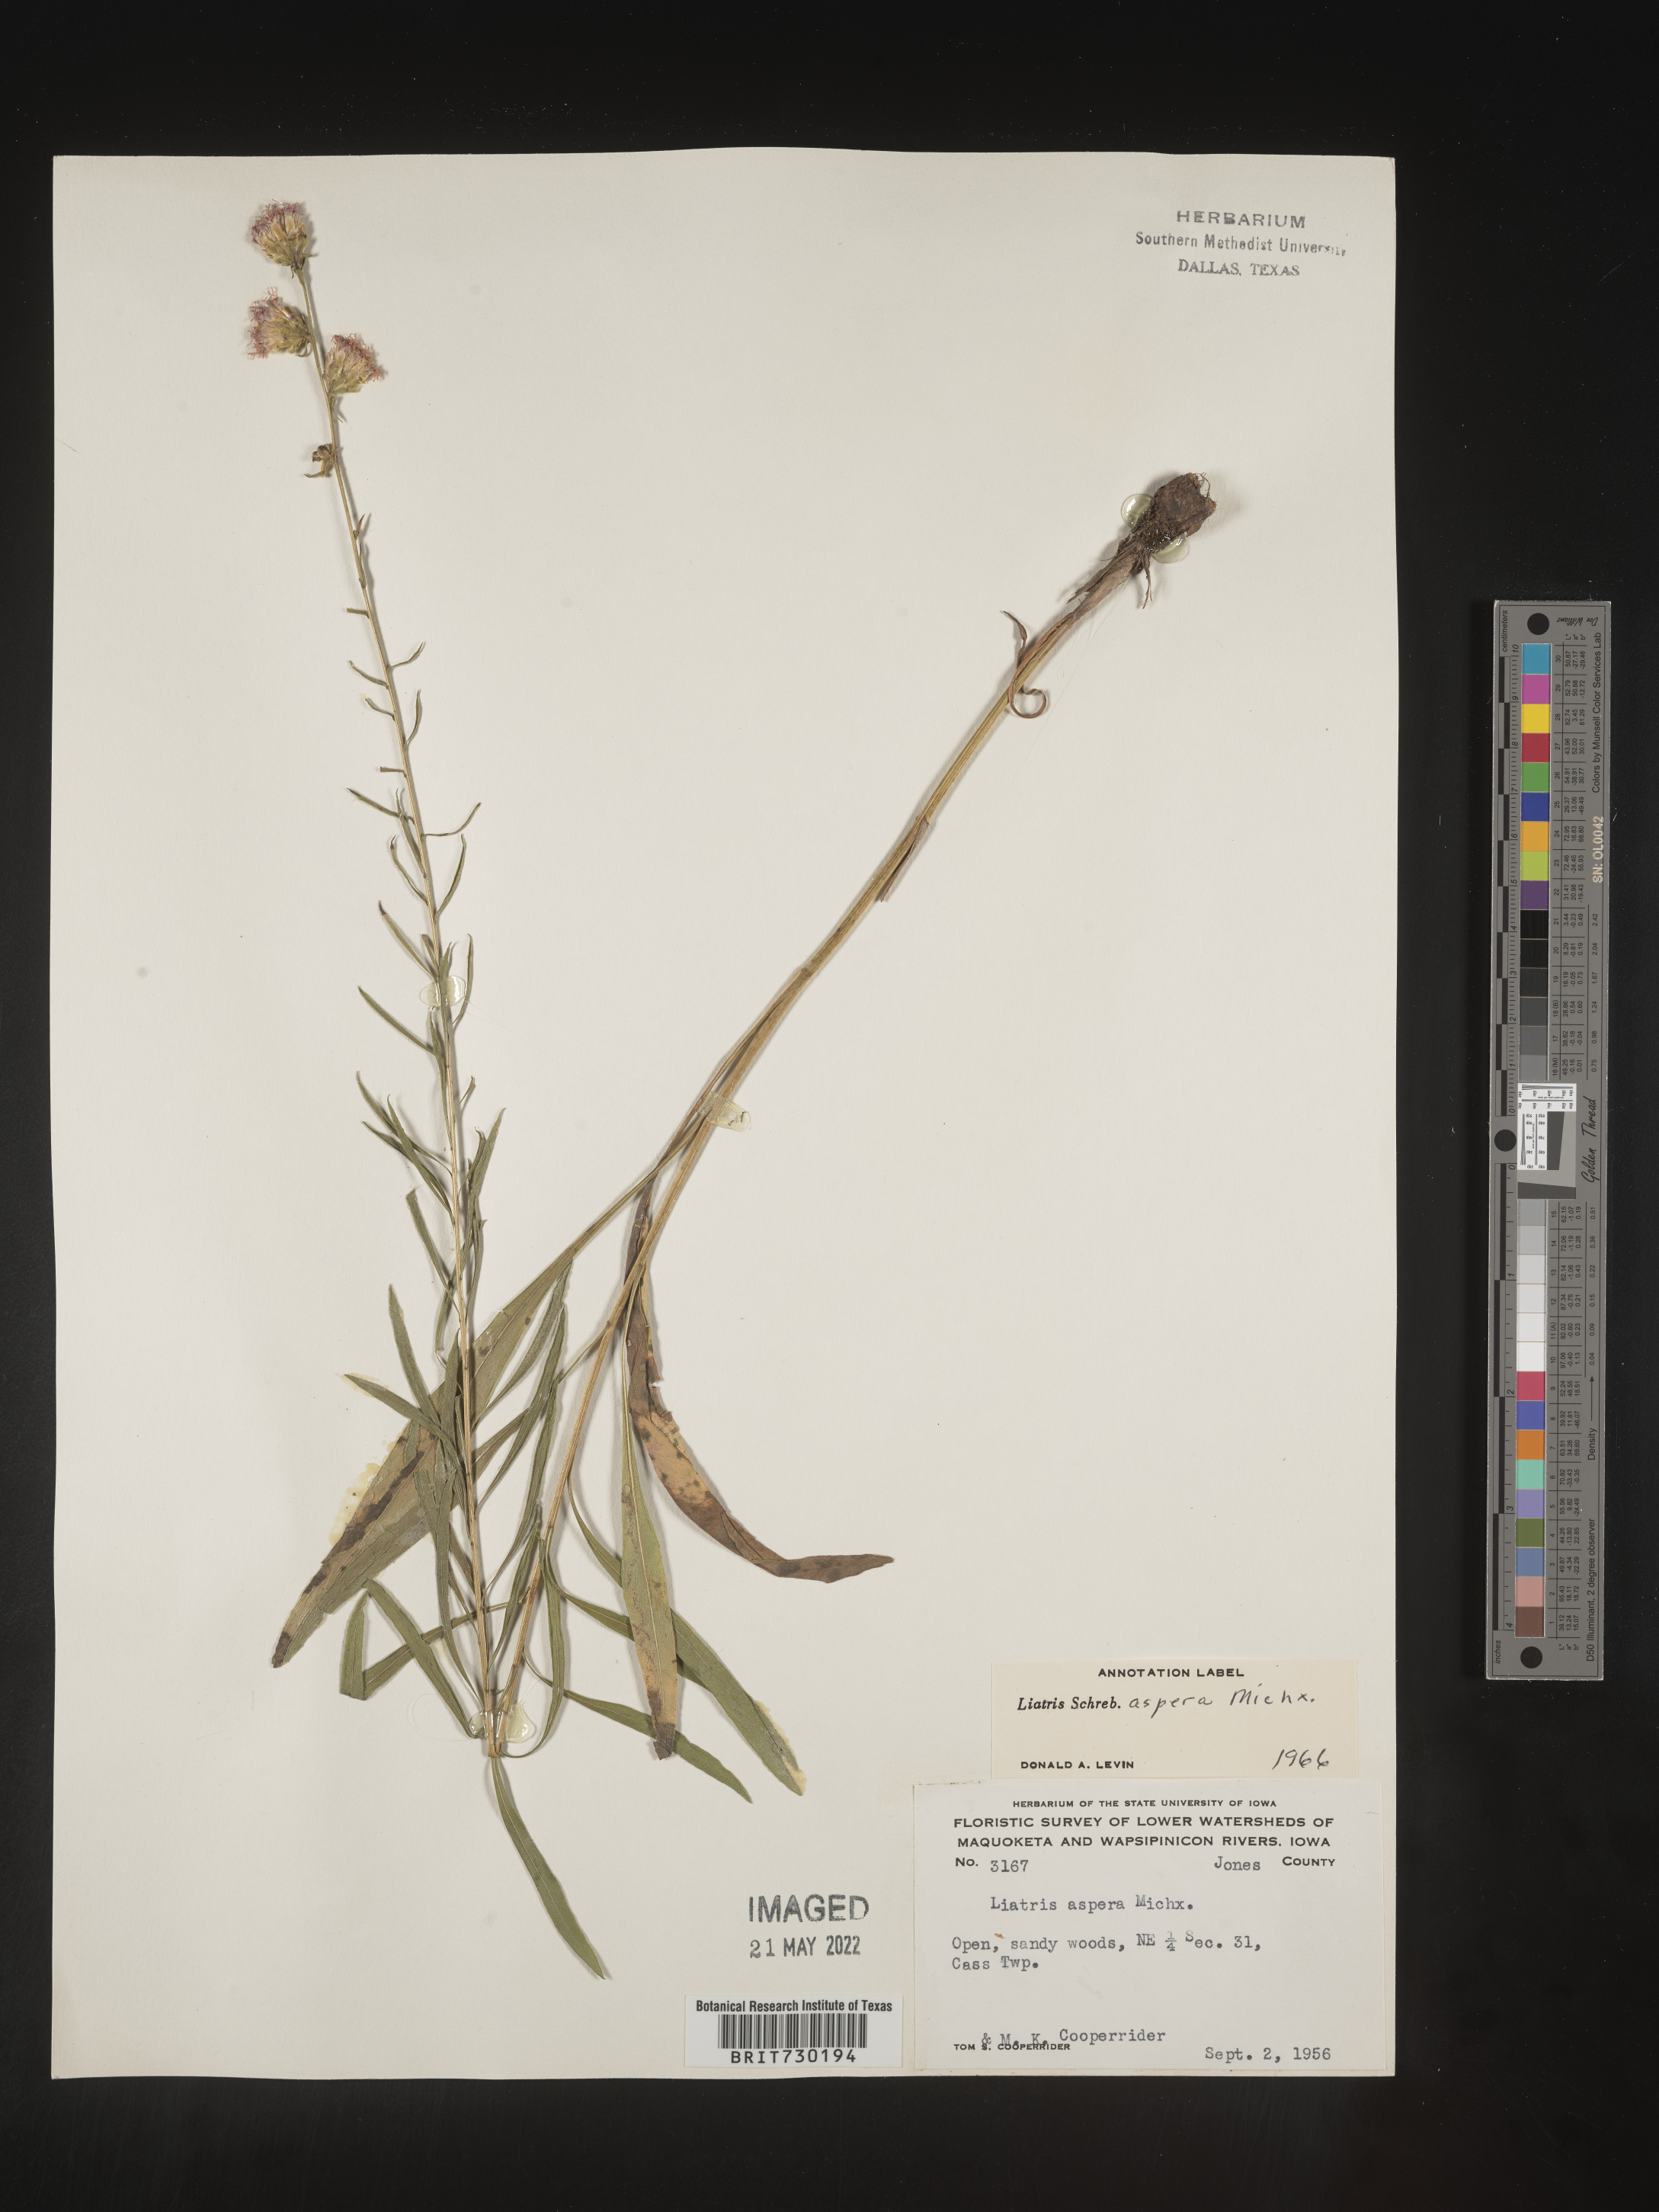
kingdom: Plantae
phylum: Tracheophyta
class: Magnoliopsida
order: Asterales
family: Asteraceae
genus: Liatris
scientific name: Liatris aspera
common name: Lacerate blazing-star
